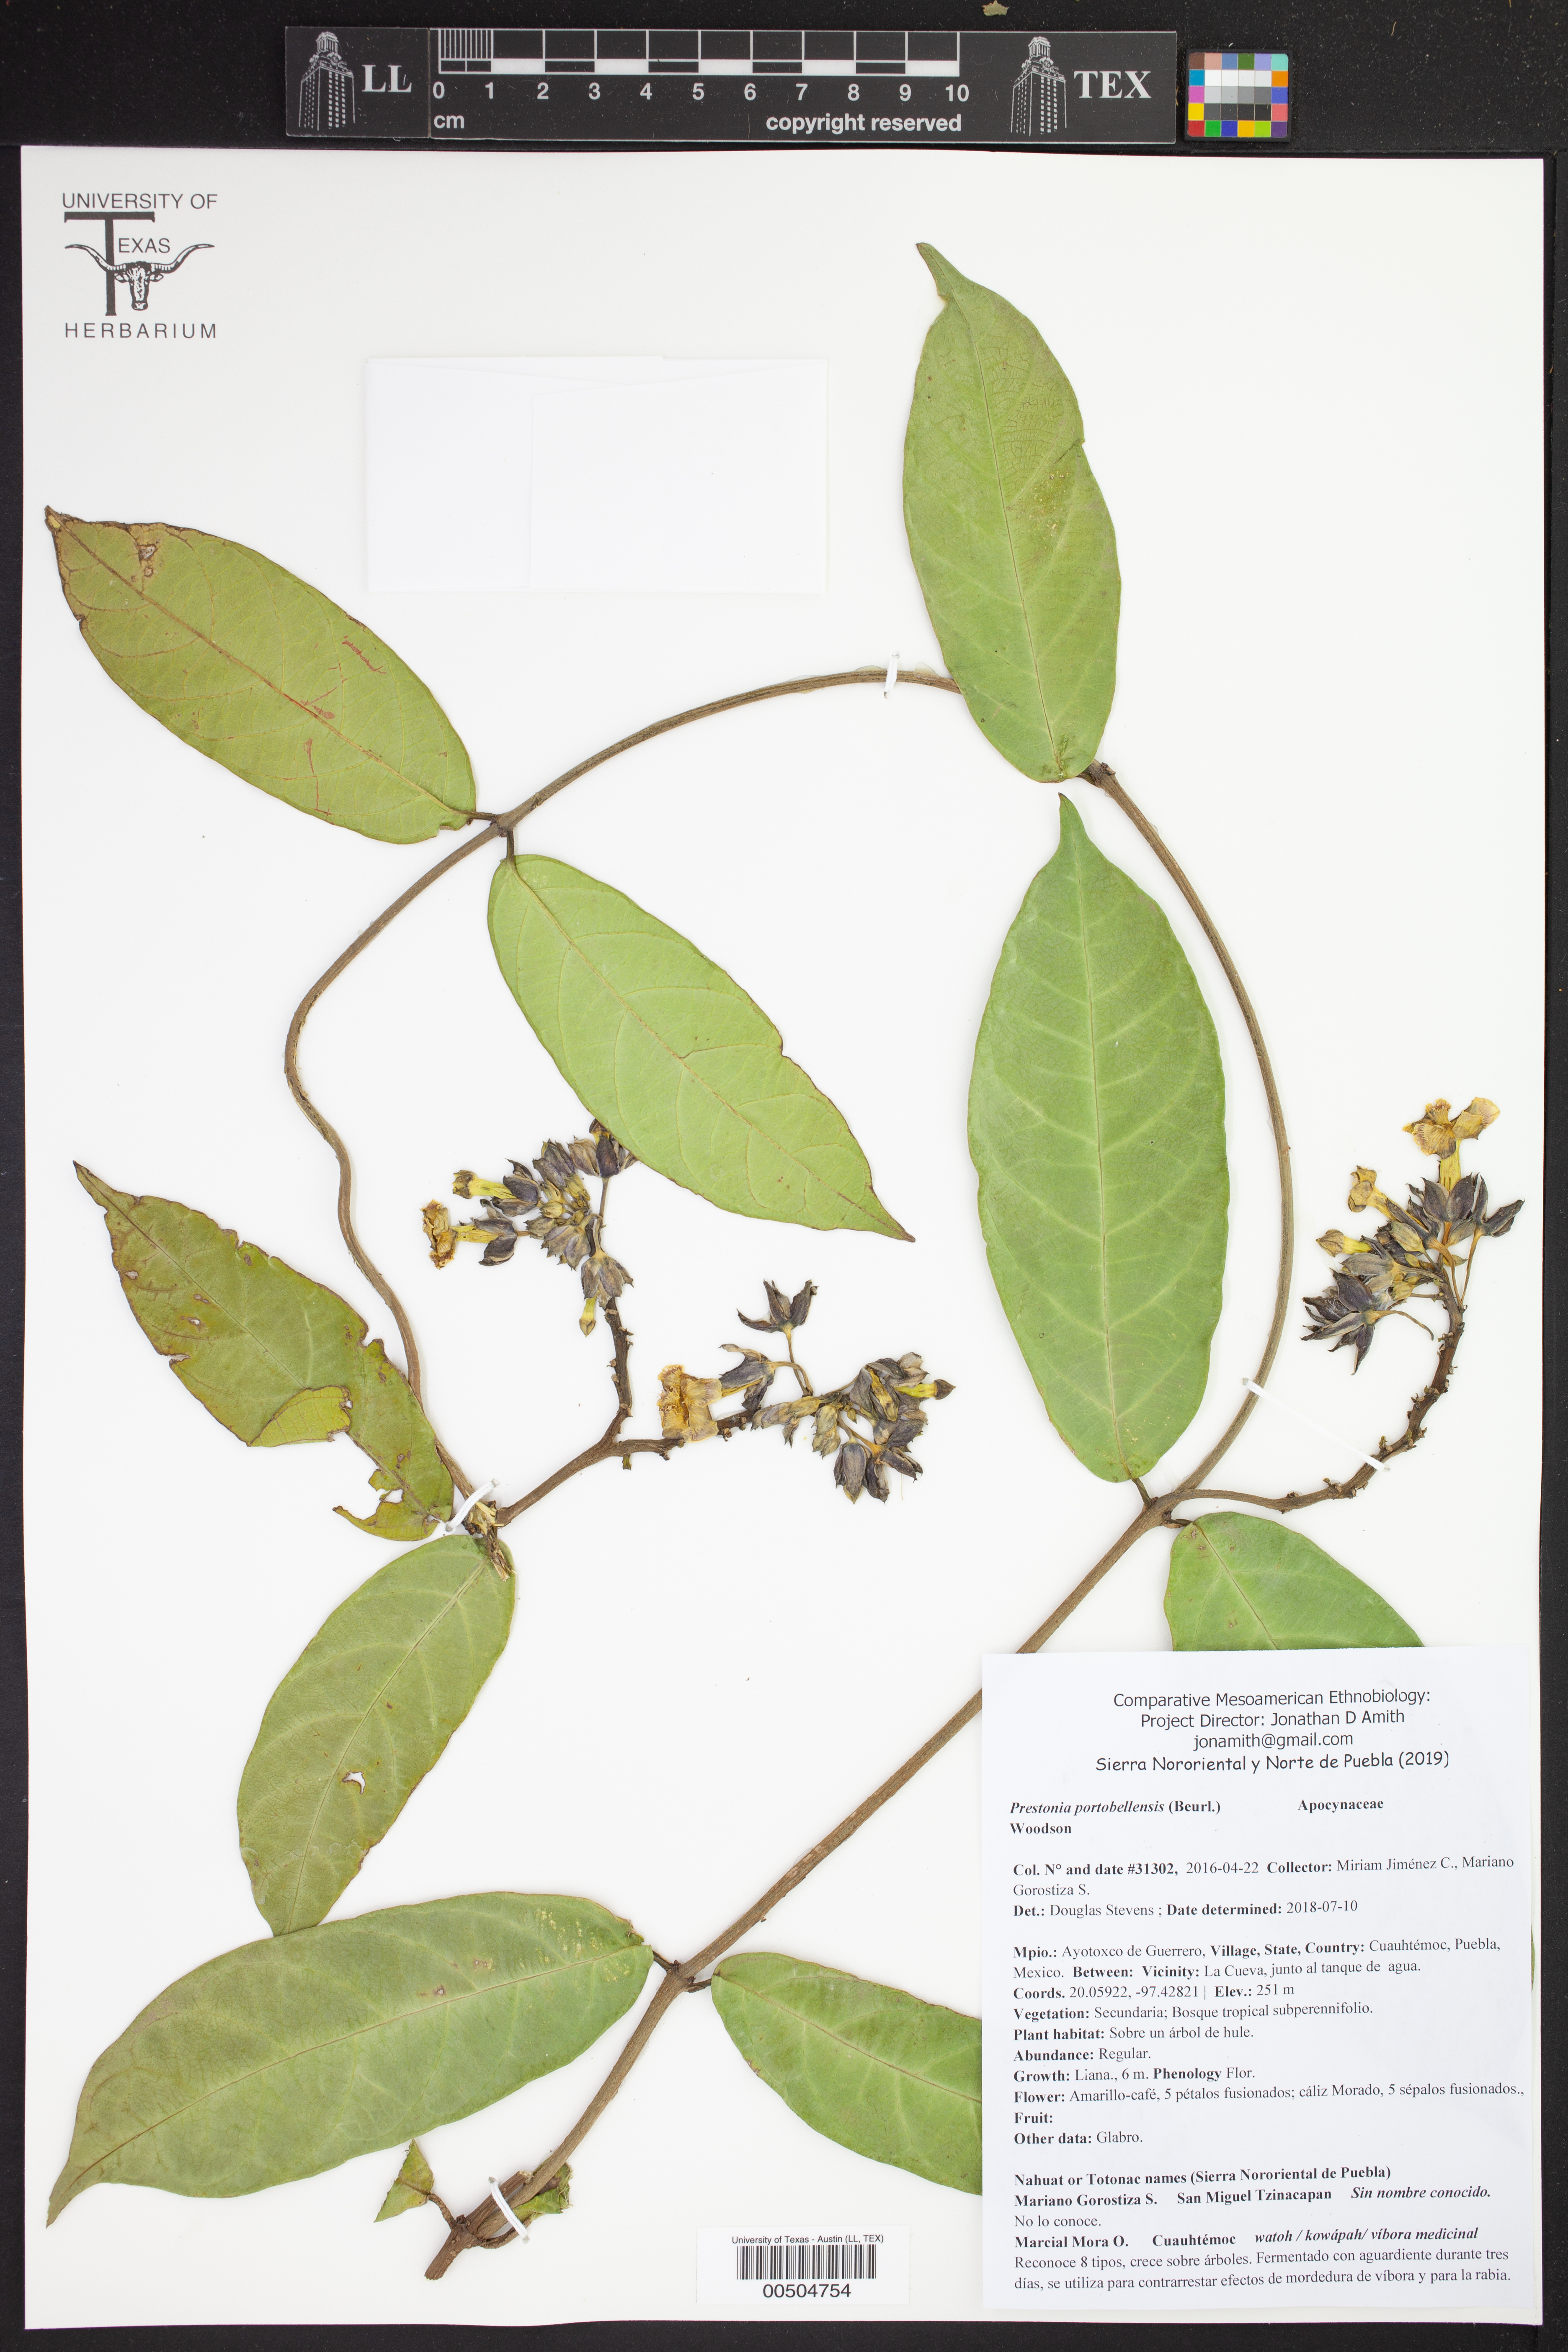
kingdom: Plantae
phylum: Tracheophyta
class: Magnoliopsida
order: Gentianales
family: Apocynaceae
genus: Prestonia
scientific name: Prestonia portobellensis
